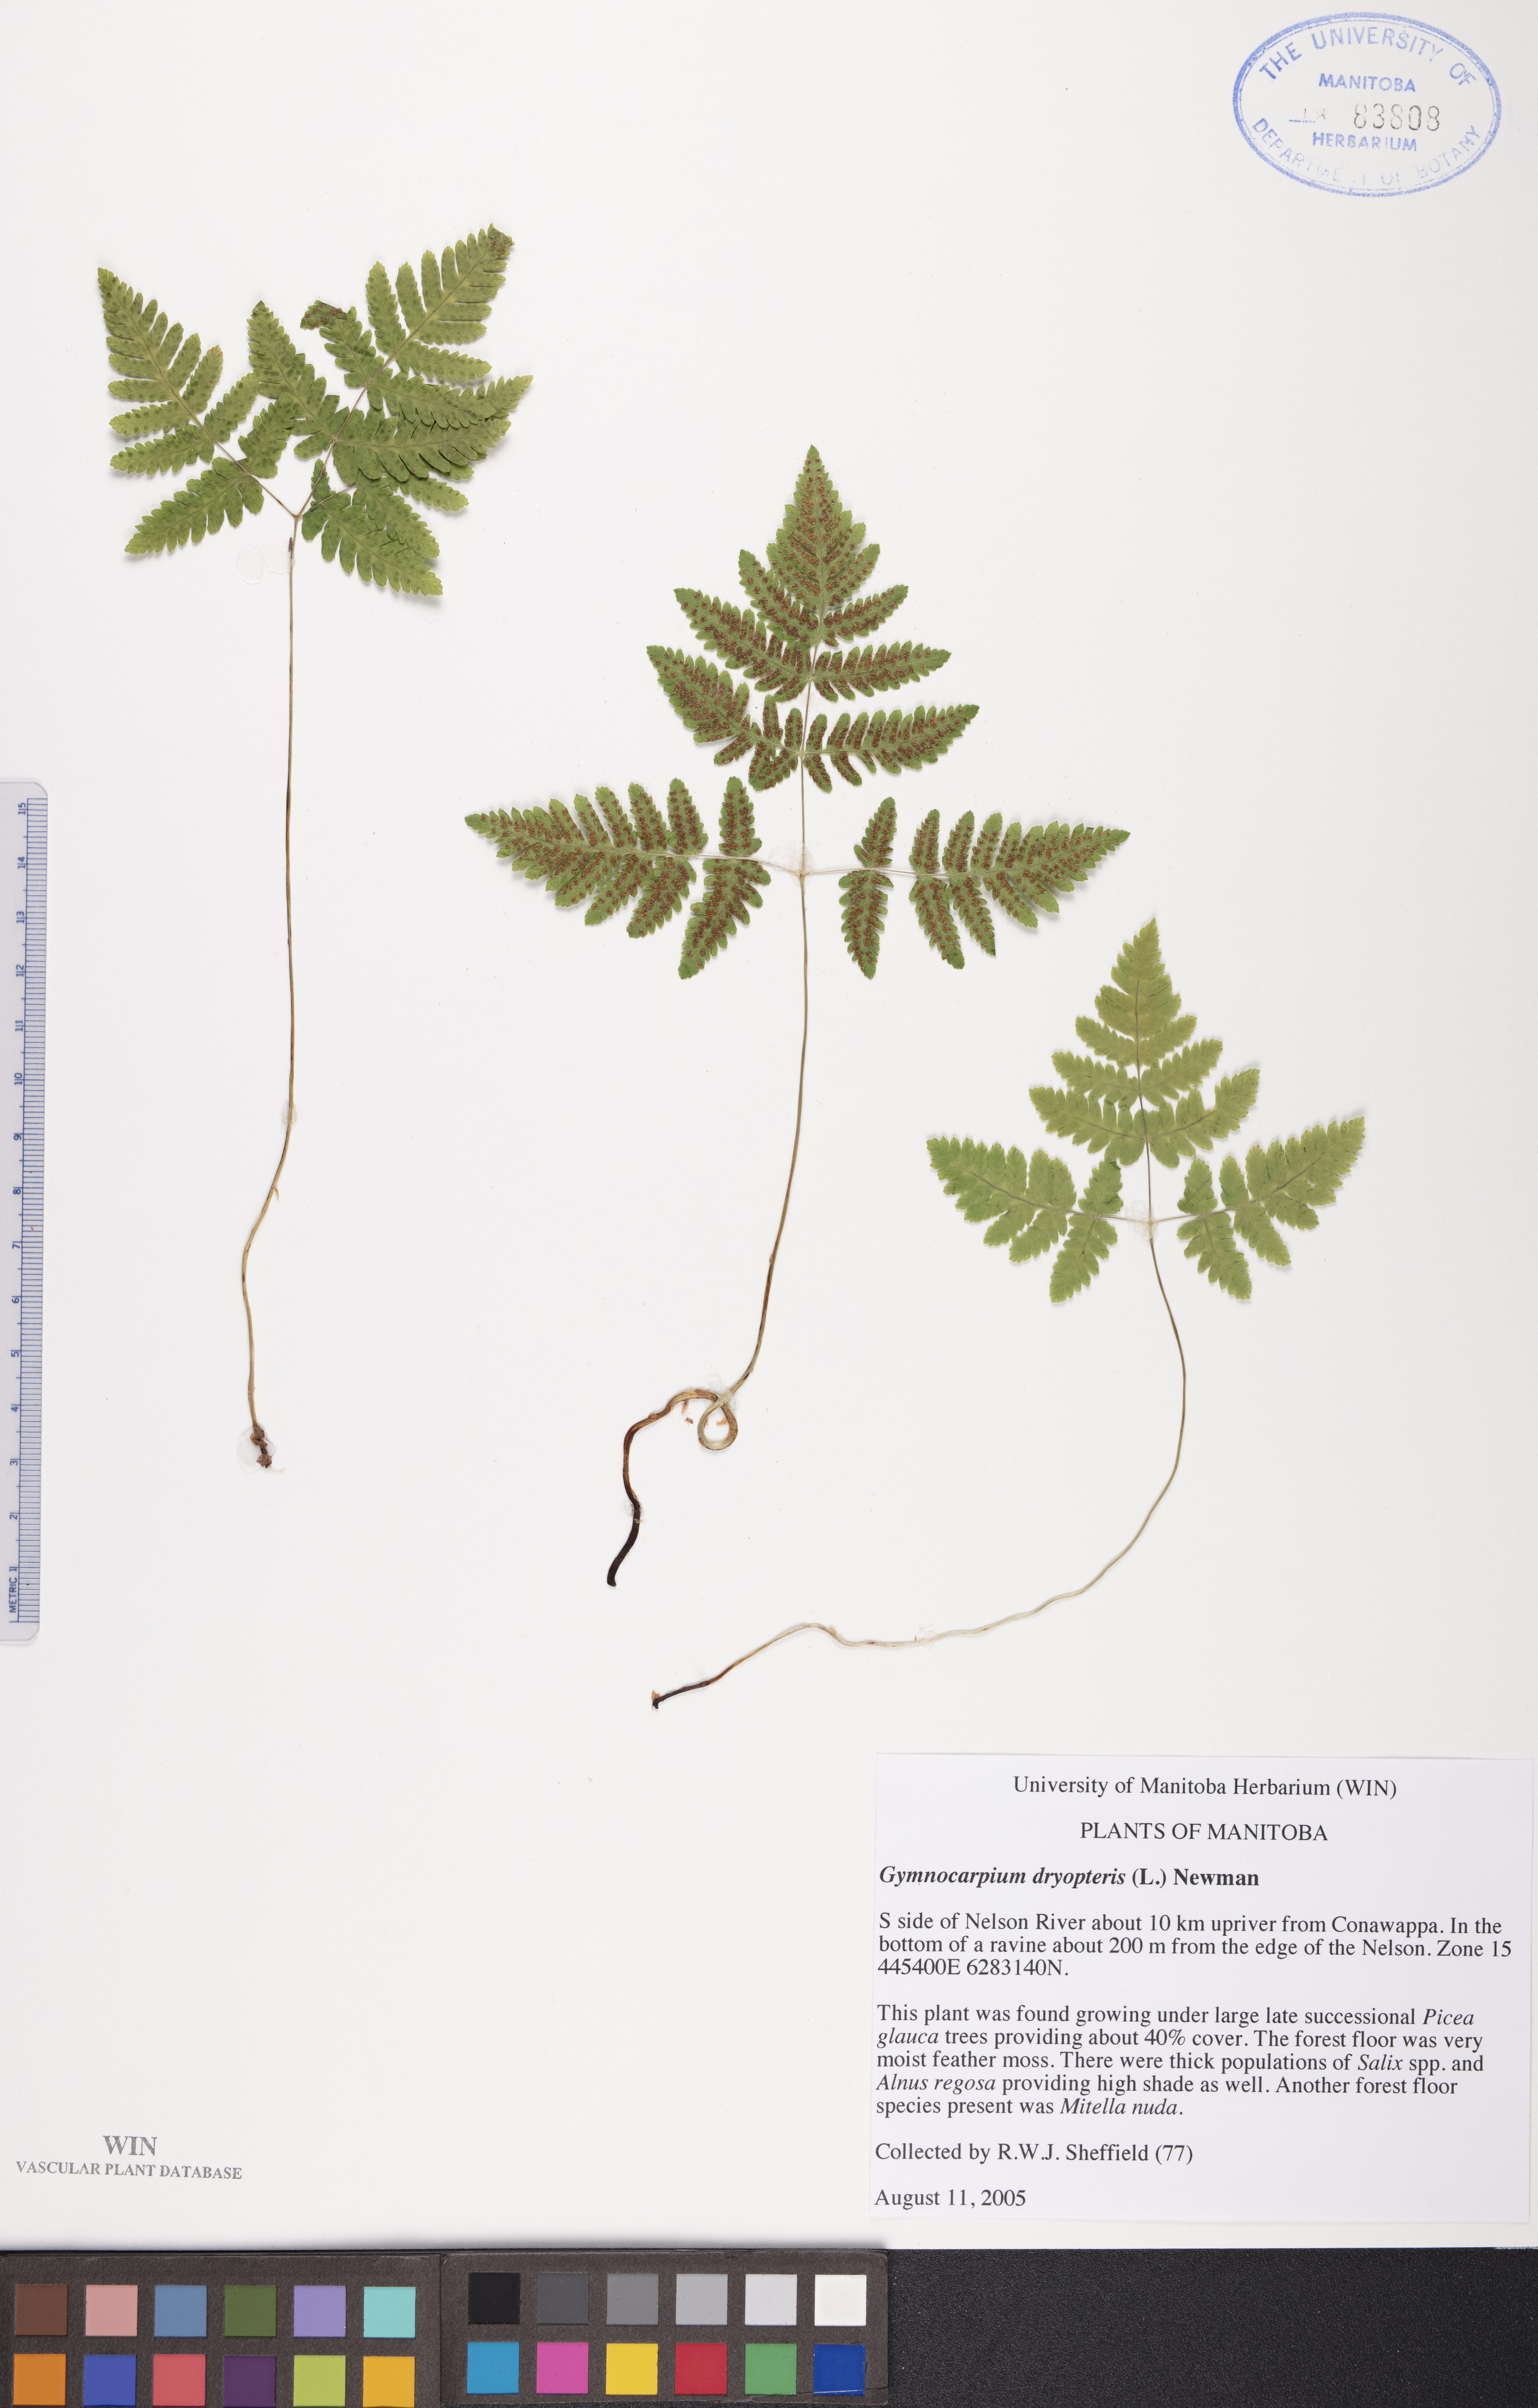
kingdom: Plantae
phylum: Tracheophyta
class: Polypodiopsida
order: Polypodiales
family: Cystopteridaceae
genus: Gymnocarpium
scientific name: Gymnocarpium dryopteris
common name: Oak fern
